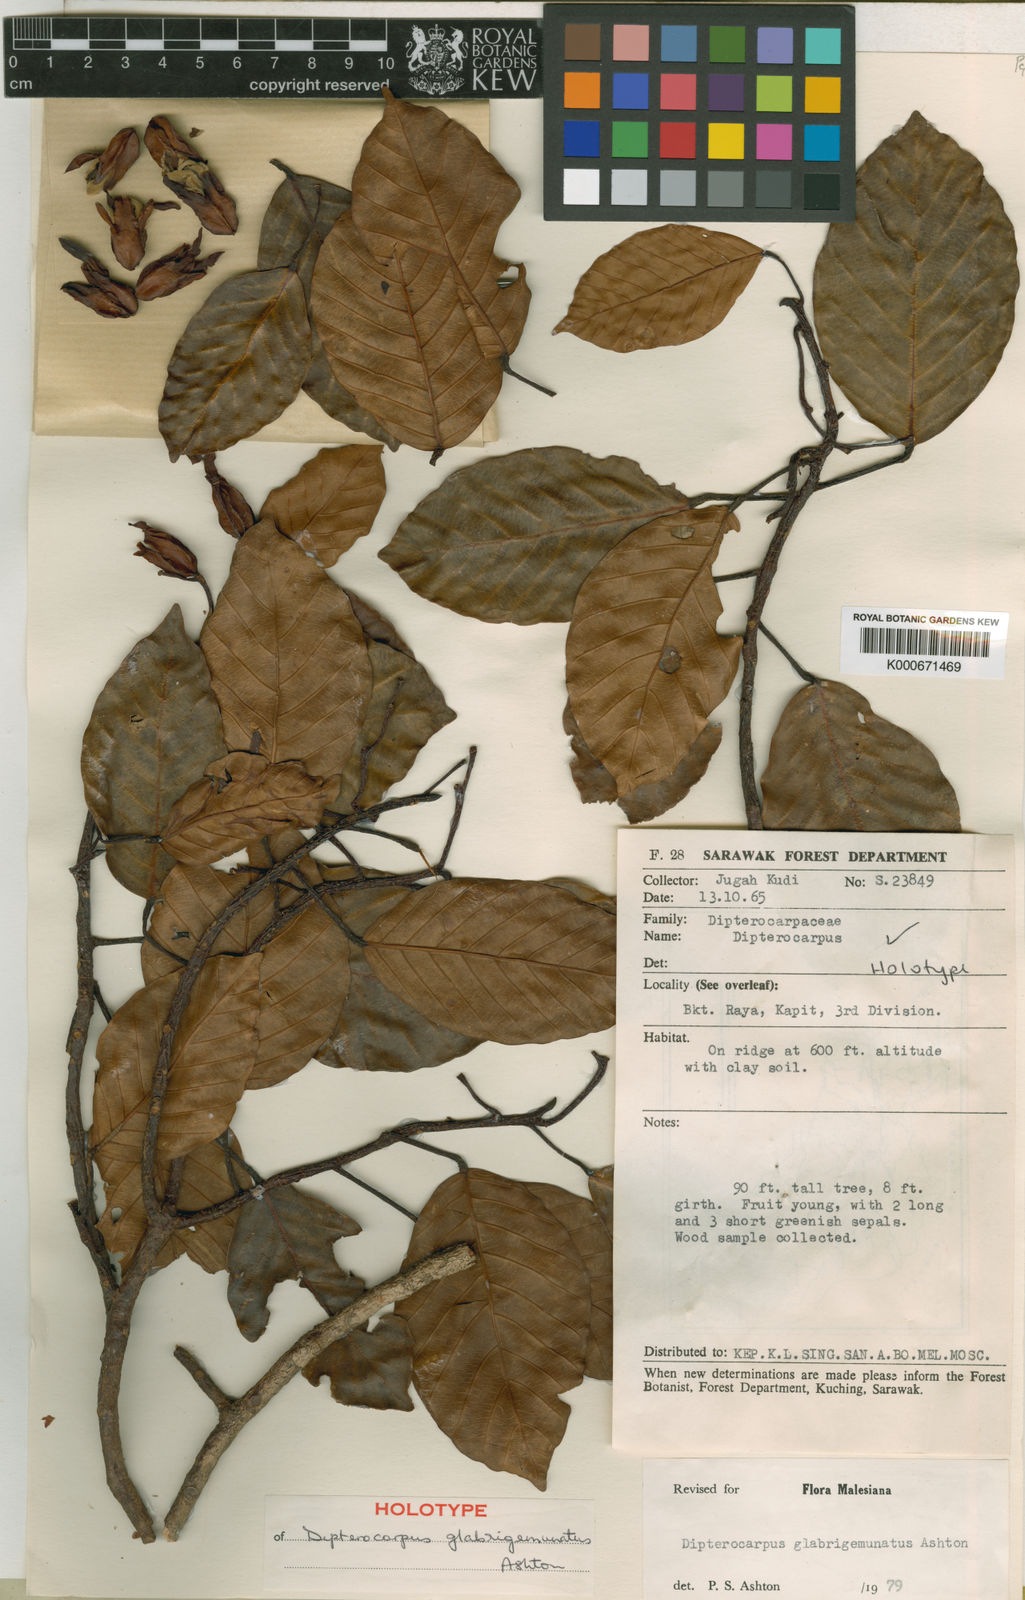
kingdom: Plantae
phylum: Tracheophyta
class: Magnoliopsida
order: Malvales
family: Dipterocarpaceae
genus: Dipterocarpus
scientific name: Dipterocarpus glabrigemmatus
